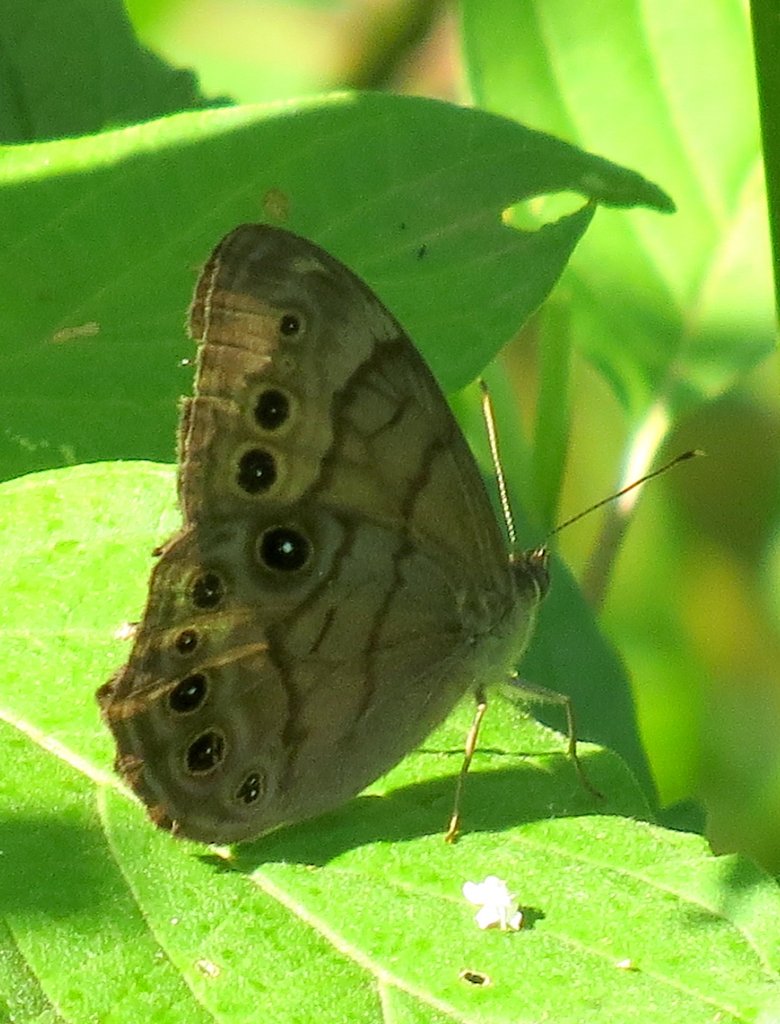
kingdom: Animalia
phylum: Arthropoda
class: Insecta
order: Lepidoptera
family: Nymphalidae
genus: Lethe
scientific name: Lethe anthedon
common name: Northern Pearly-Eye
